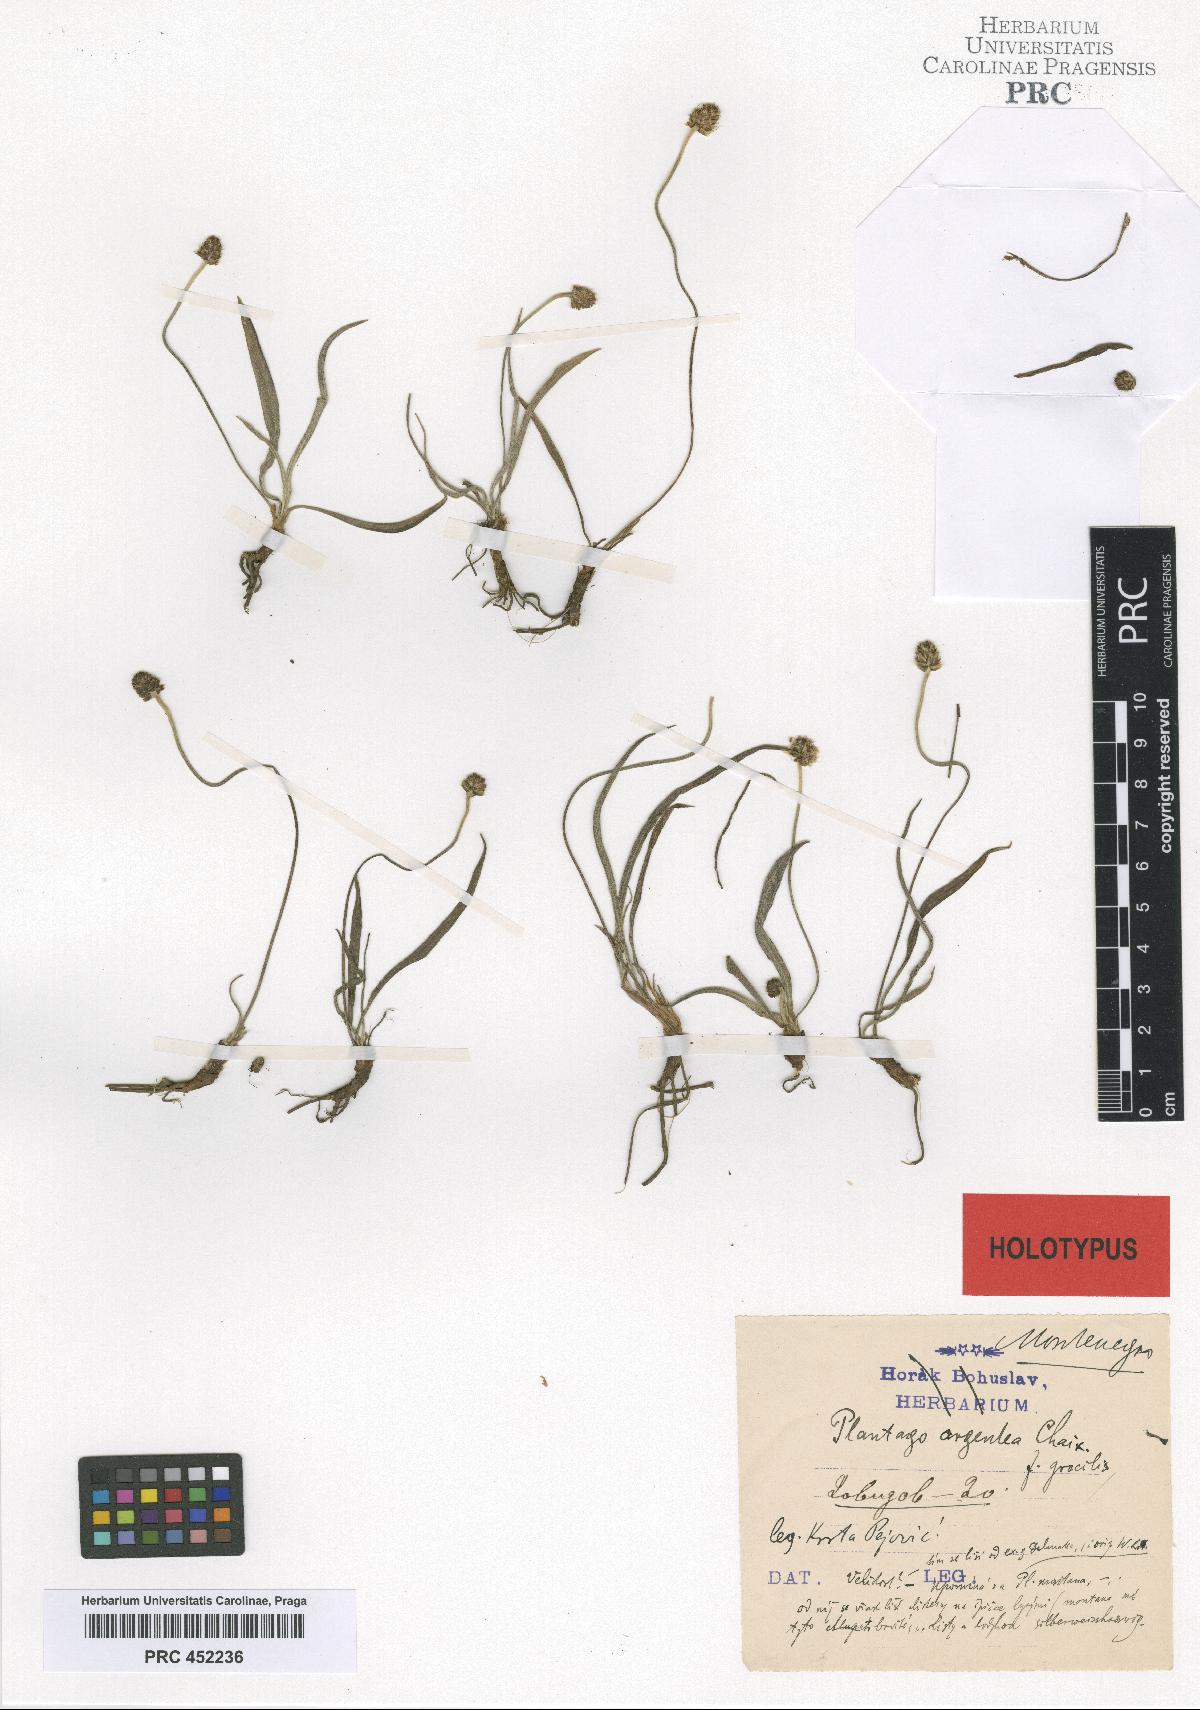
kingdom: Plantae
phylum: Tracheophyta
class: Magnoliopsida
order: Lamiales
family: Plantaginaceae
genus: Plantago
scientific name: Plantago argentea
